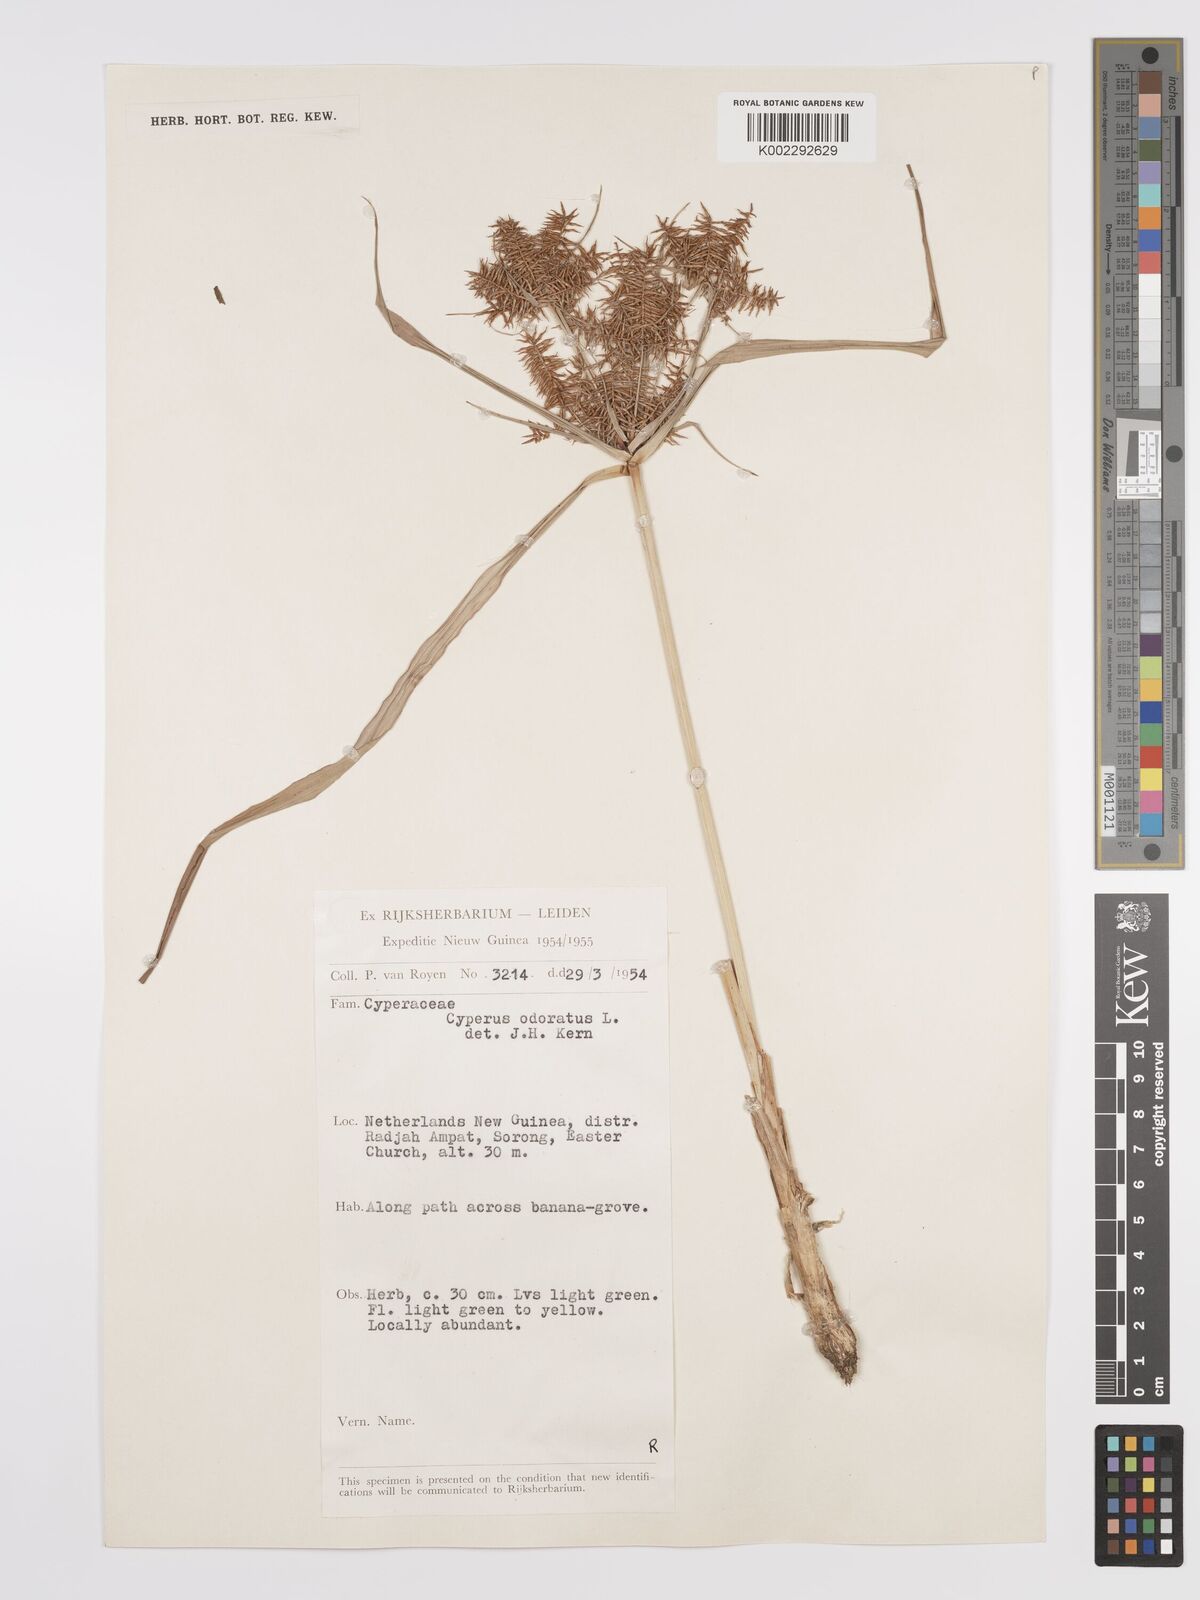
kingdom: Plantae
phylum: Tracheophyta
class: Liliopsida
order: Poales
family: Cyperaceae
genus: Cyperus
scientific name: Cyperus odoratus
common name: Fragrant flatsedge
